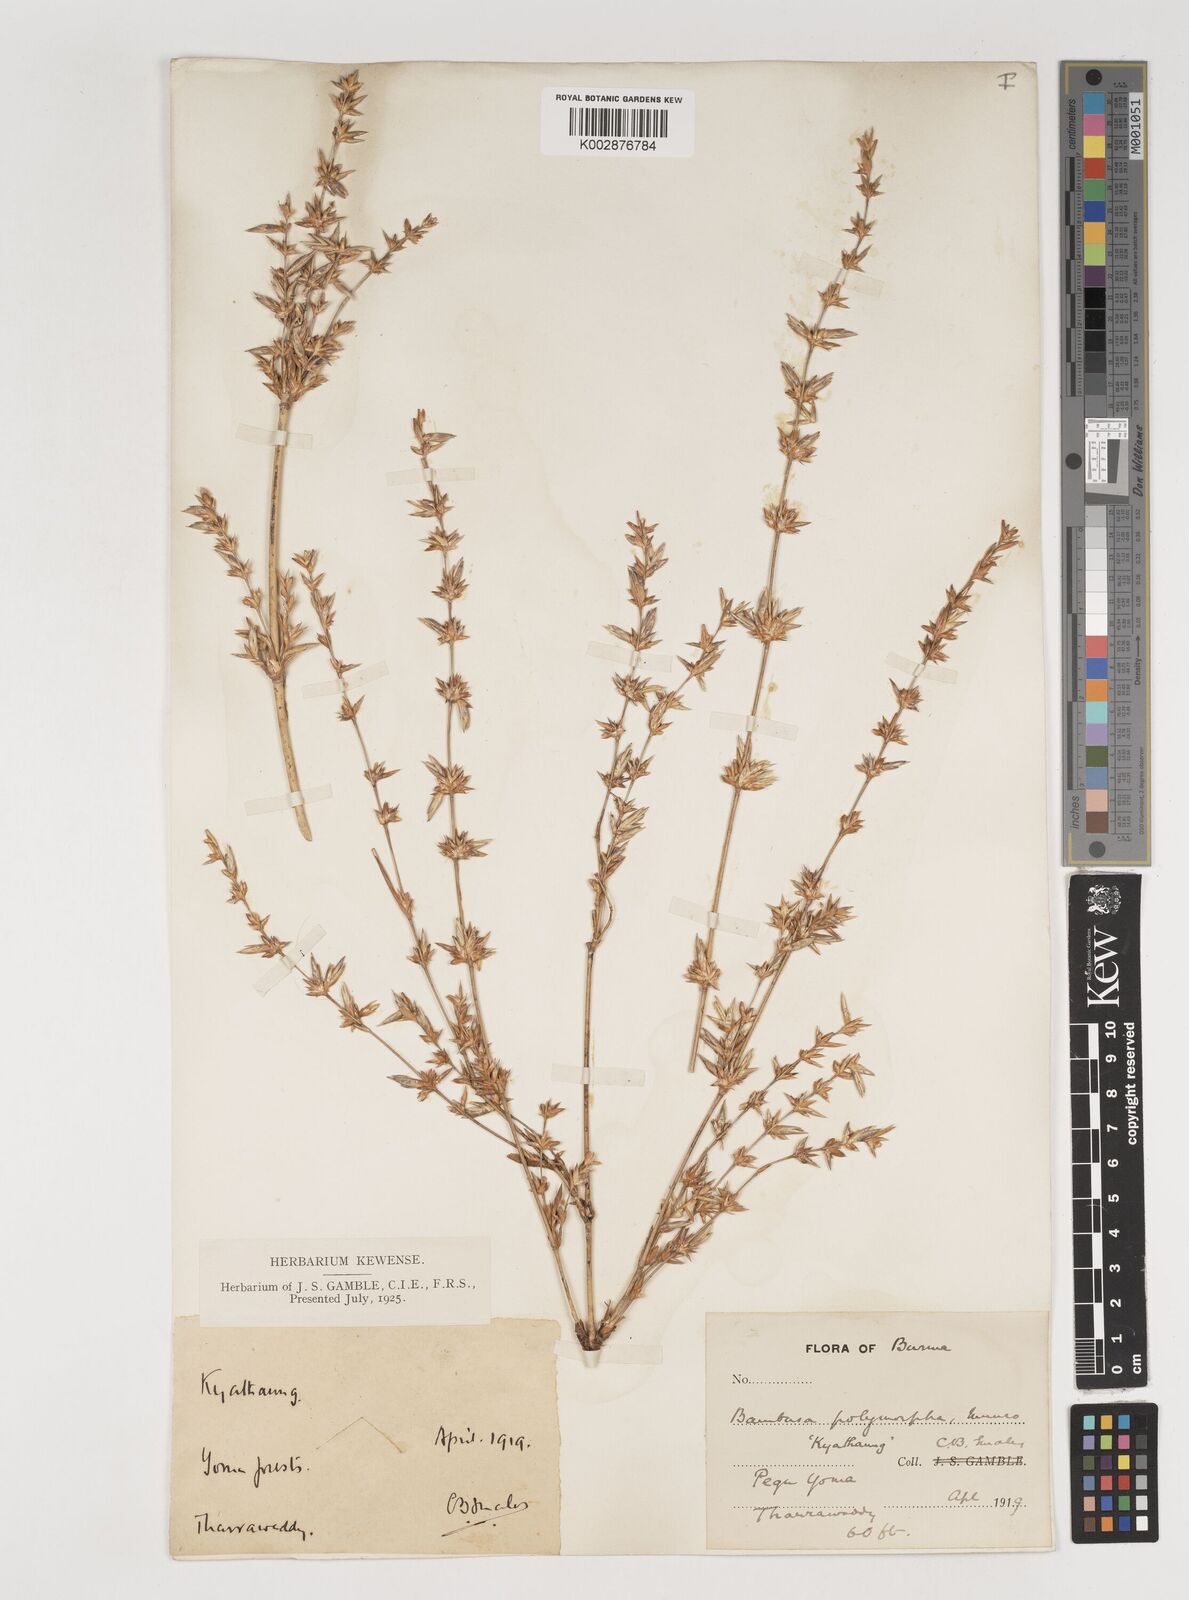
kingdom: Plantae
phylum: Tracheophyta
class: Liliopsida
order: Poales
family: Poaceae
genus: Bambusa
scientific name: Bambusa polymorpha
